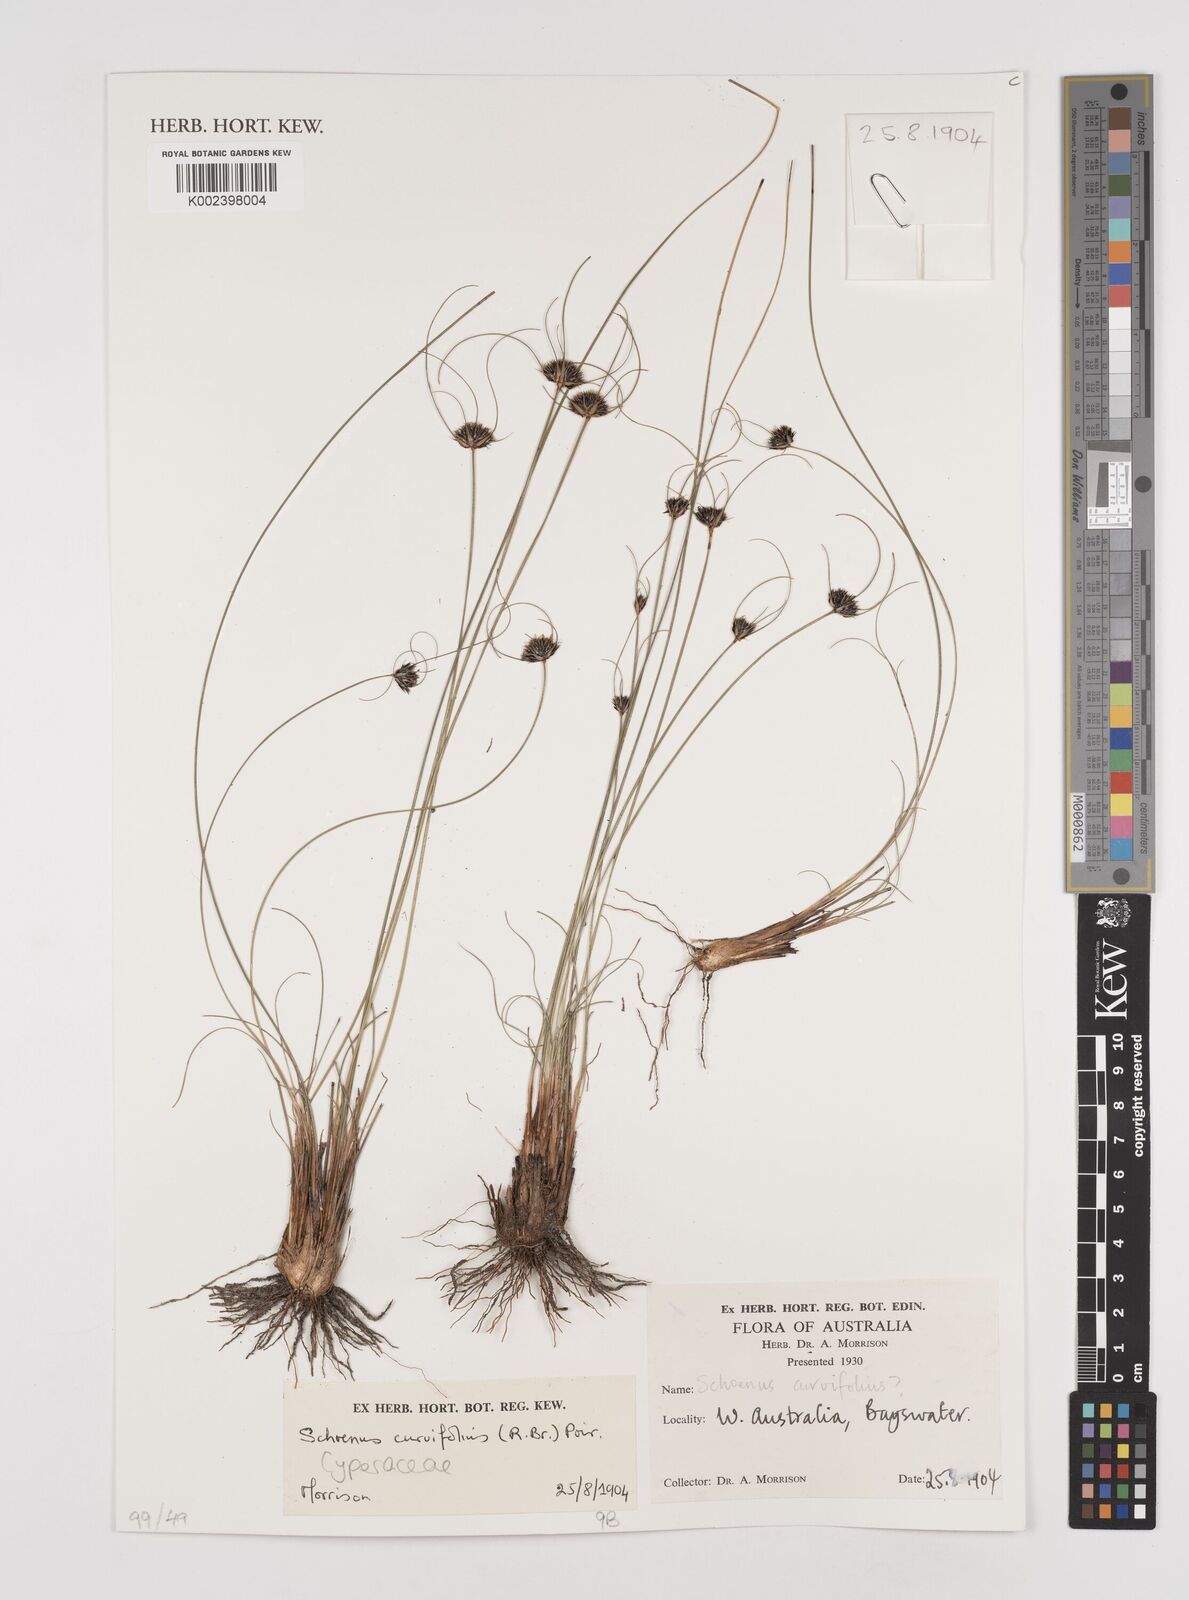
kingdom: Plantae
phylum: Tracheophyta
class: Liliopsida
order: Poales
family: Cyperaceae
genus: Schoenus
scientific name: Schoenus curvifolius
